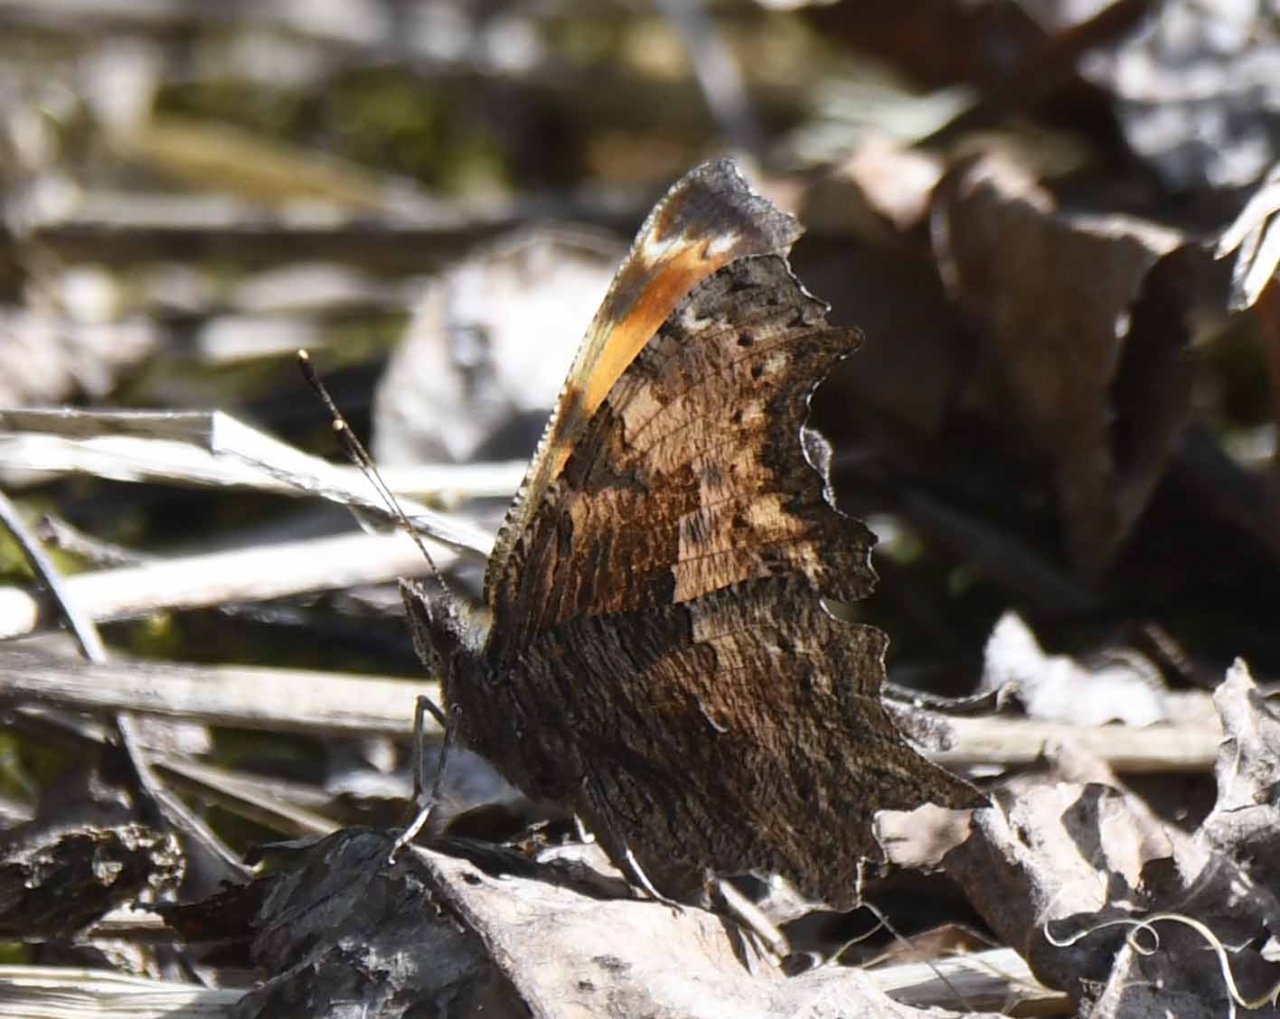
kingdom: Animalia
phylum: Arthropoda
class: Insecta
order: Lepidoptera
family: Nymphalidae
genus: Polygonia
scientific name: Polygonia progne
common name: Gray Comma
